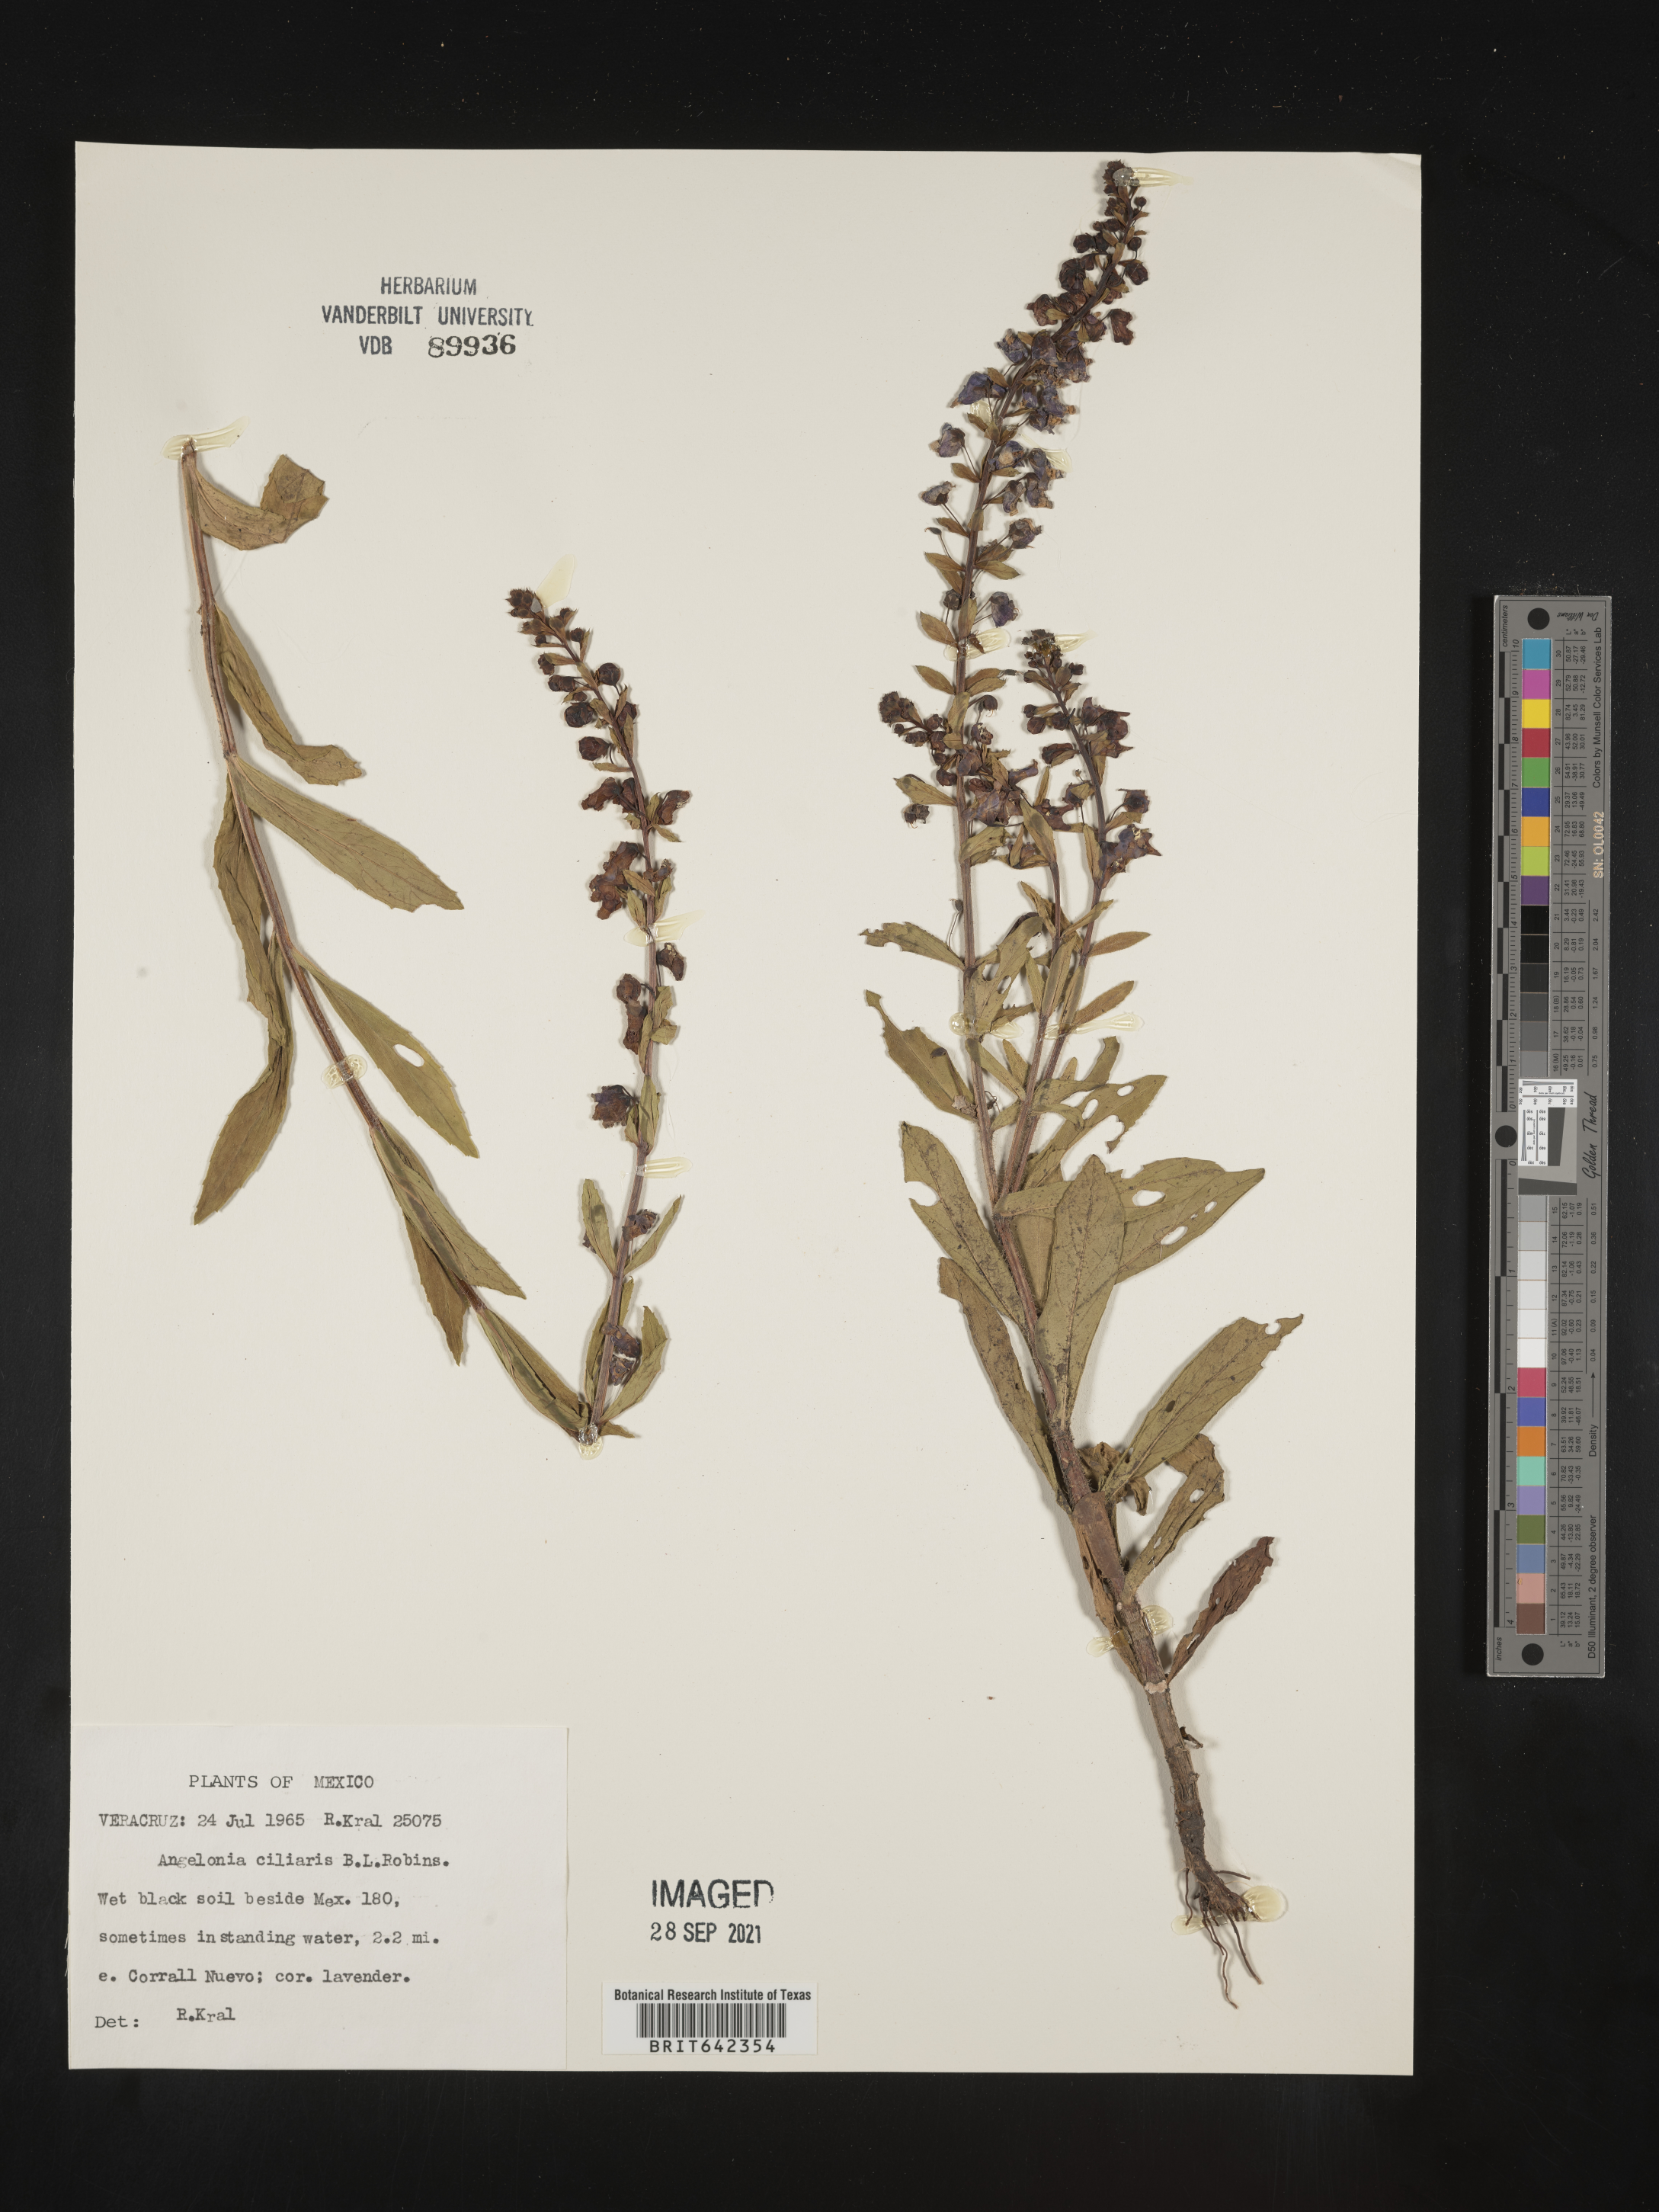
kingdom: Plantae
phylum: Tracheophyta
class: Magnoliopsida
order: Lamiales
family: Plantaginaceae
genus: Angelonia
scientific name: Angelonia
